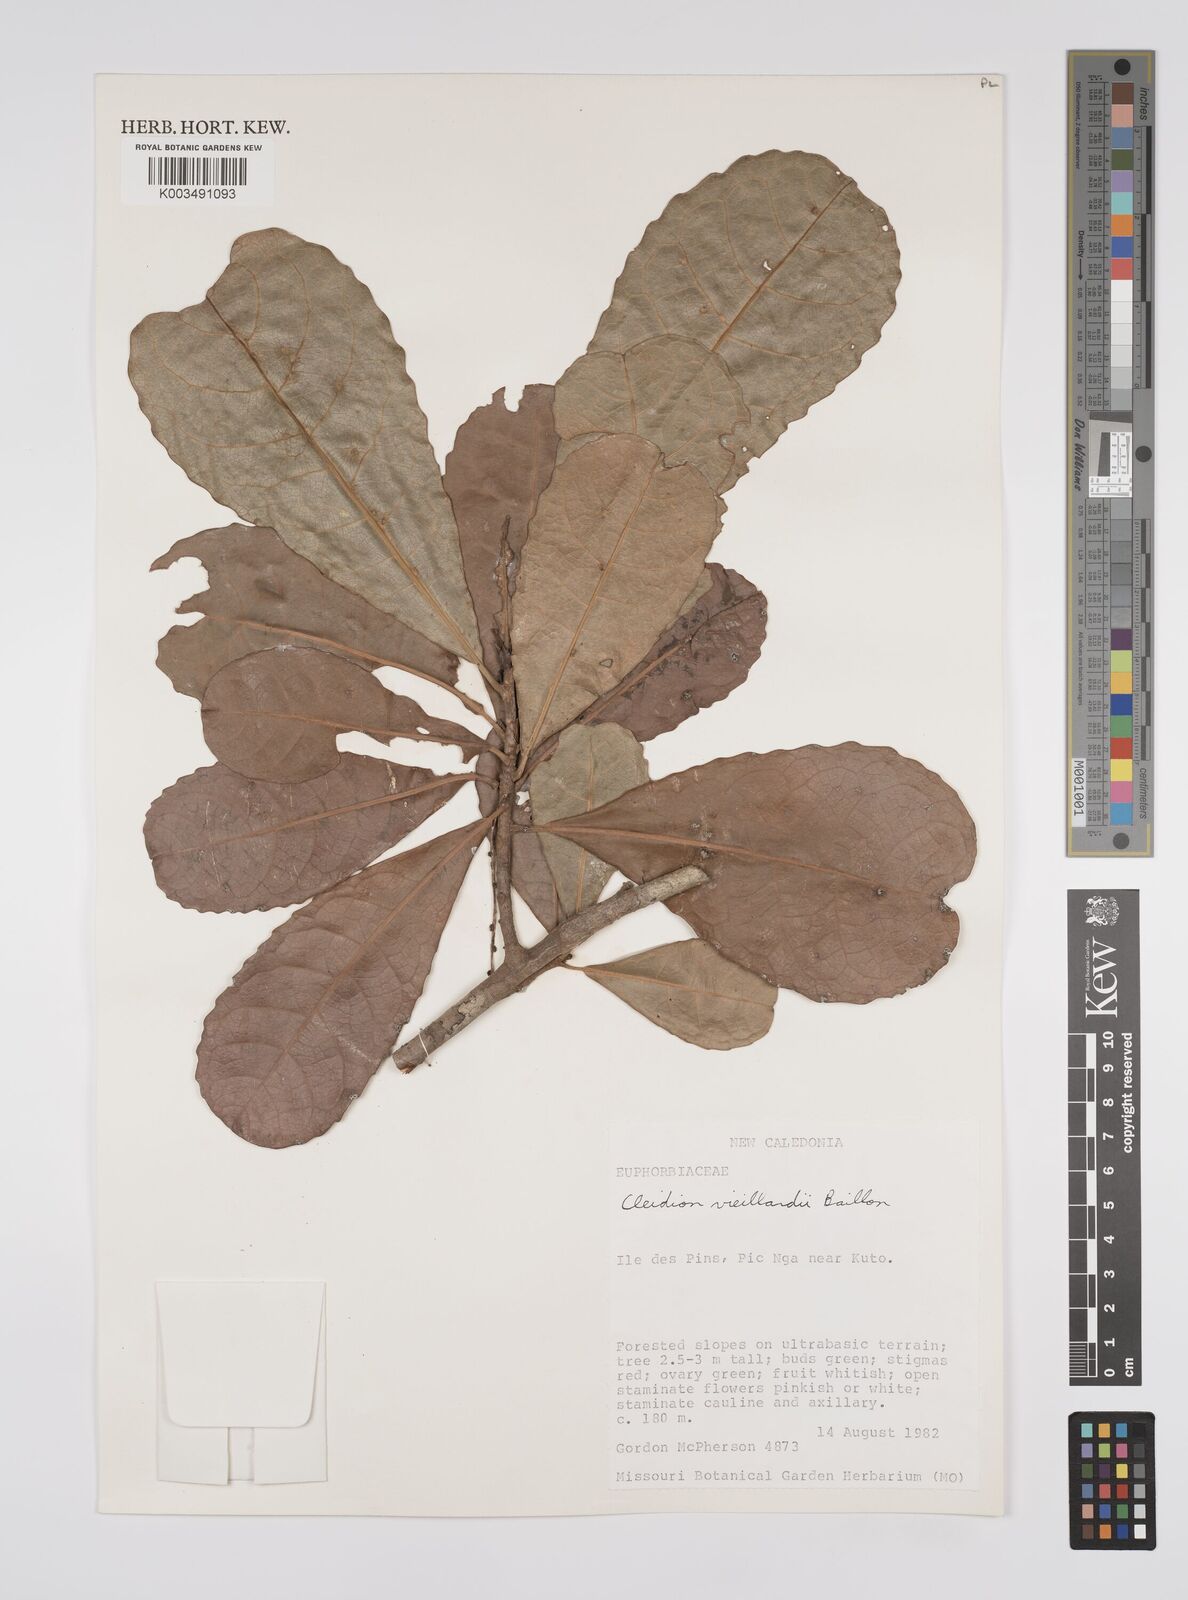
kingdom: Plantae
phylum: Tracheophyta
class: Magnoliopsida
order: Malpighiales
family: Euphorbiaceae
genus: Cleidion
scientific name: Cleidion vieillardii
